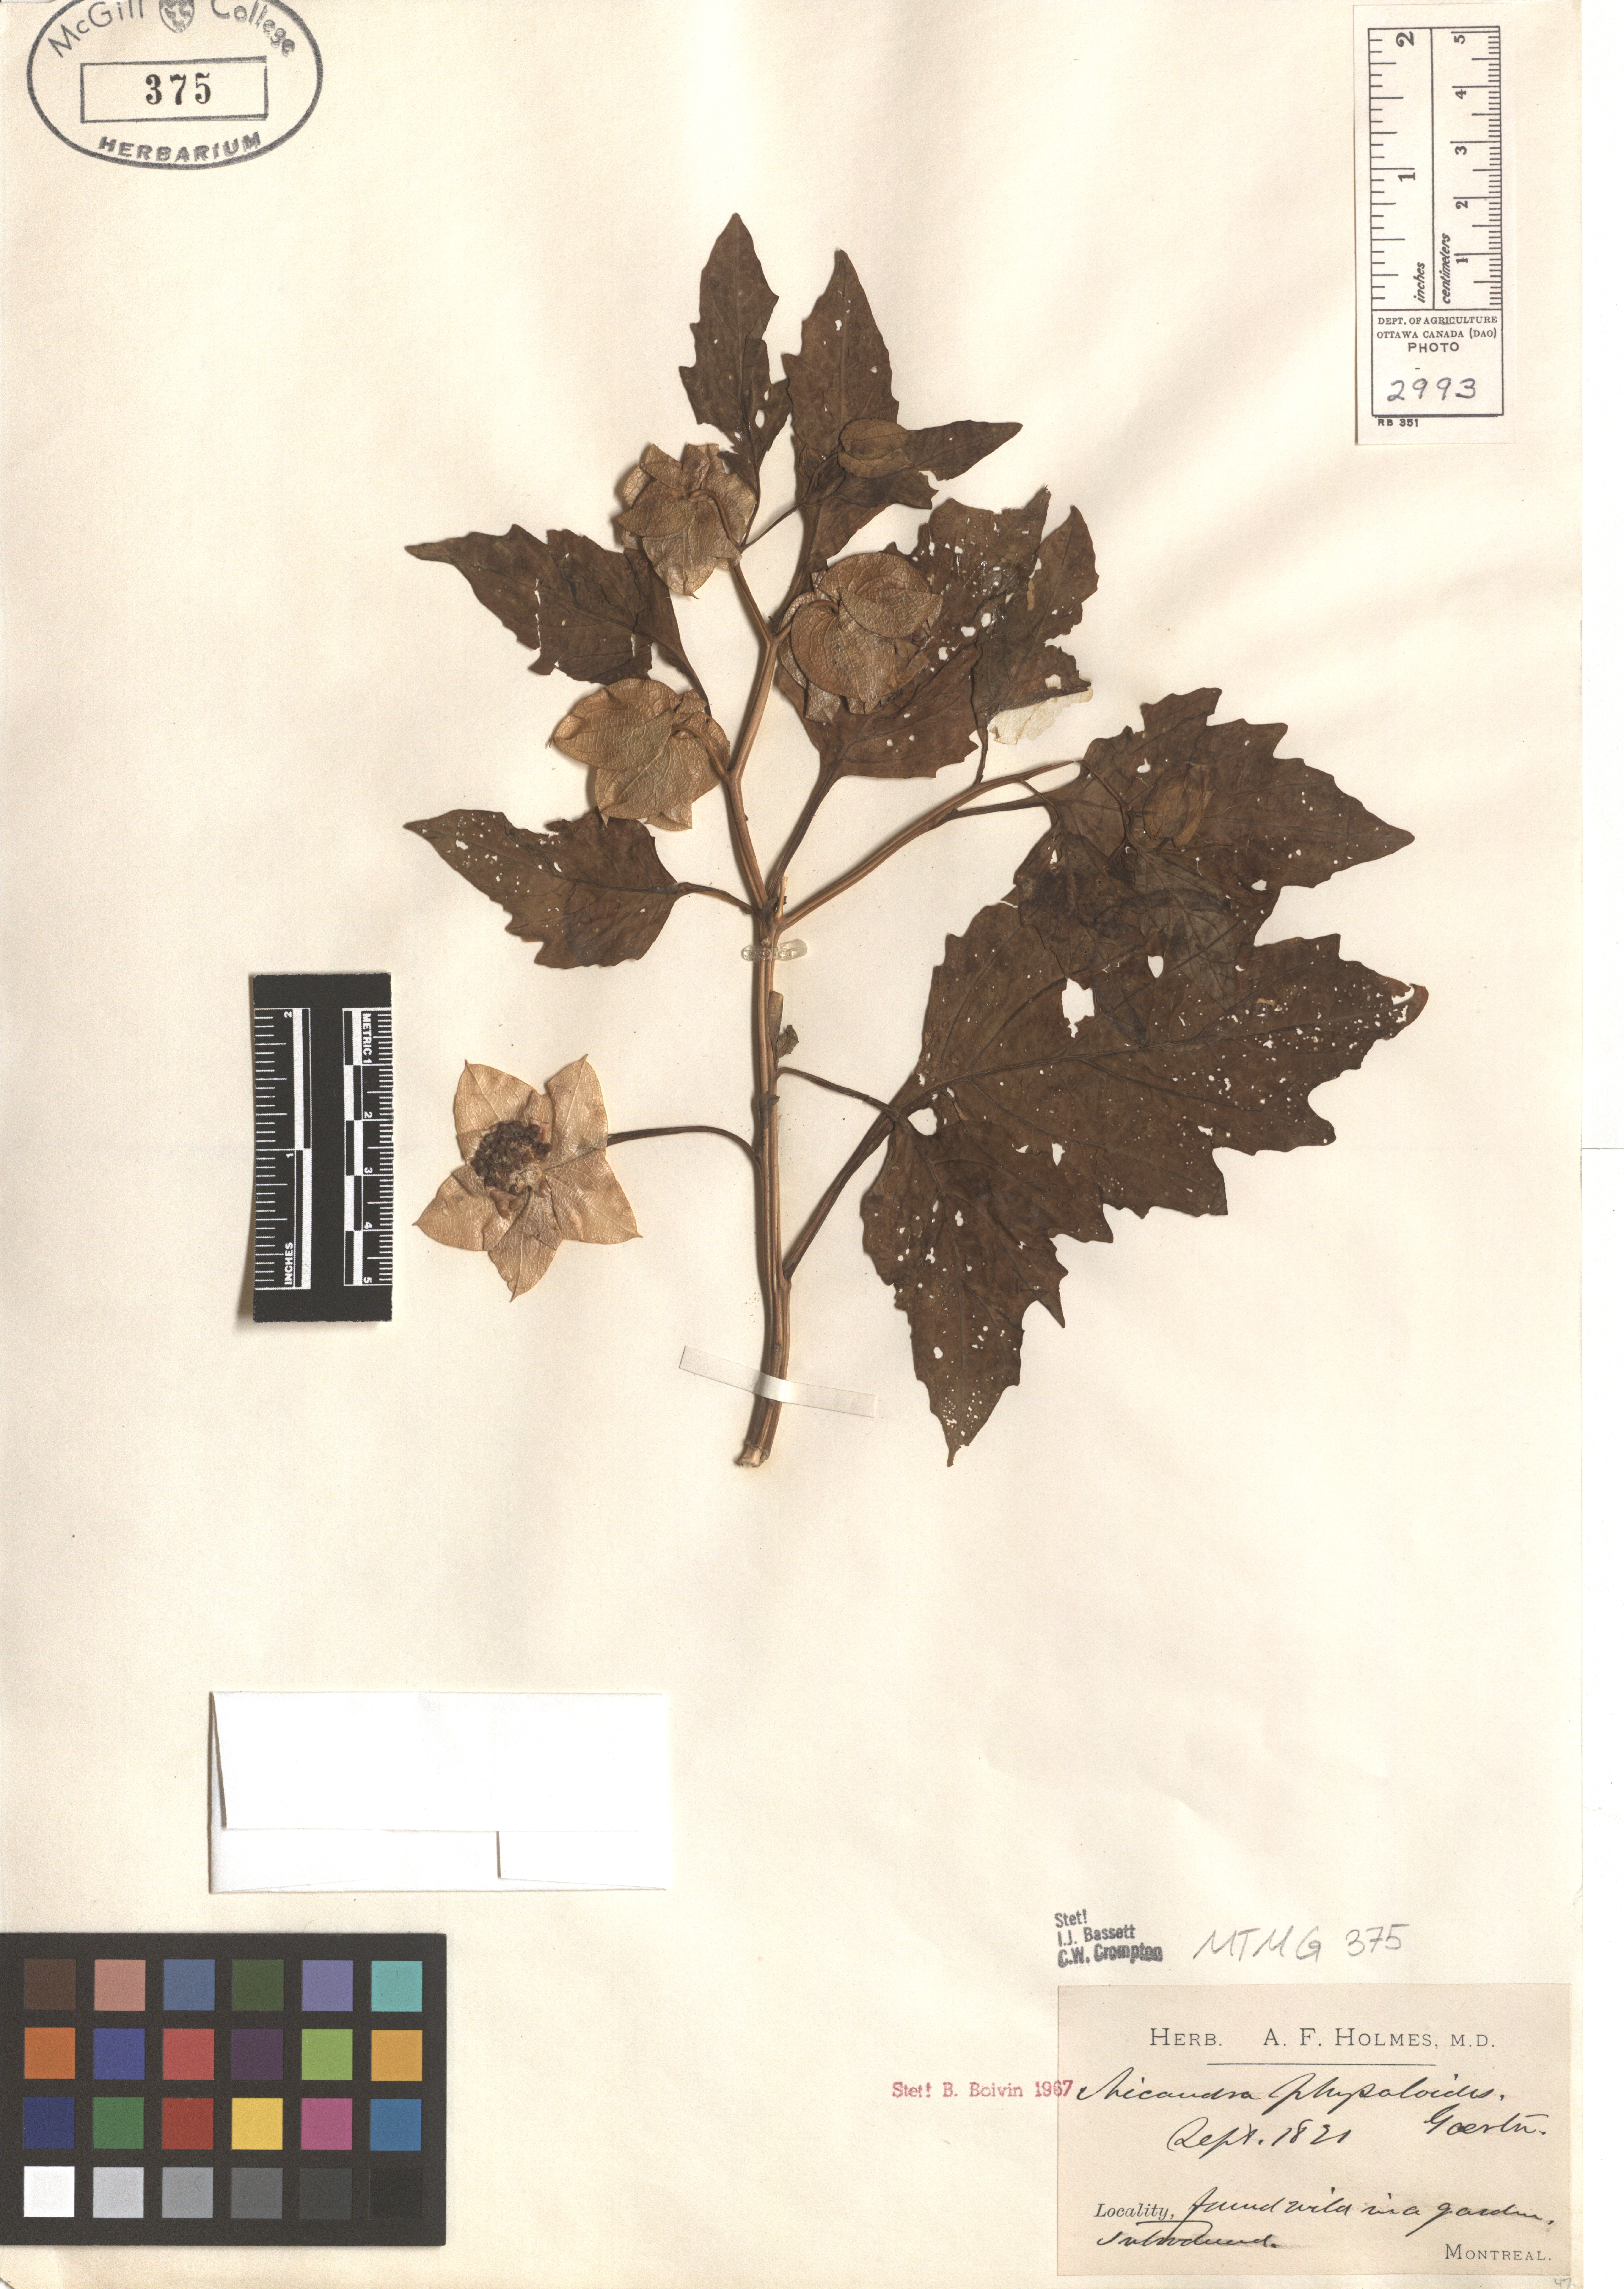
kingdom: Plantae
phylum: Tracheophyta
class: Magnoliopsida
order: Solanales
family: Solanaceae
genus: Nicandra
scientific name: Nicandra physalodes
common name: Apple-of-peru
